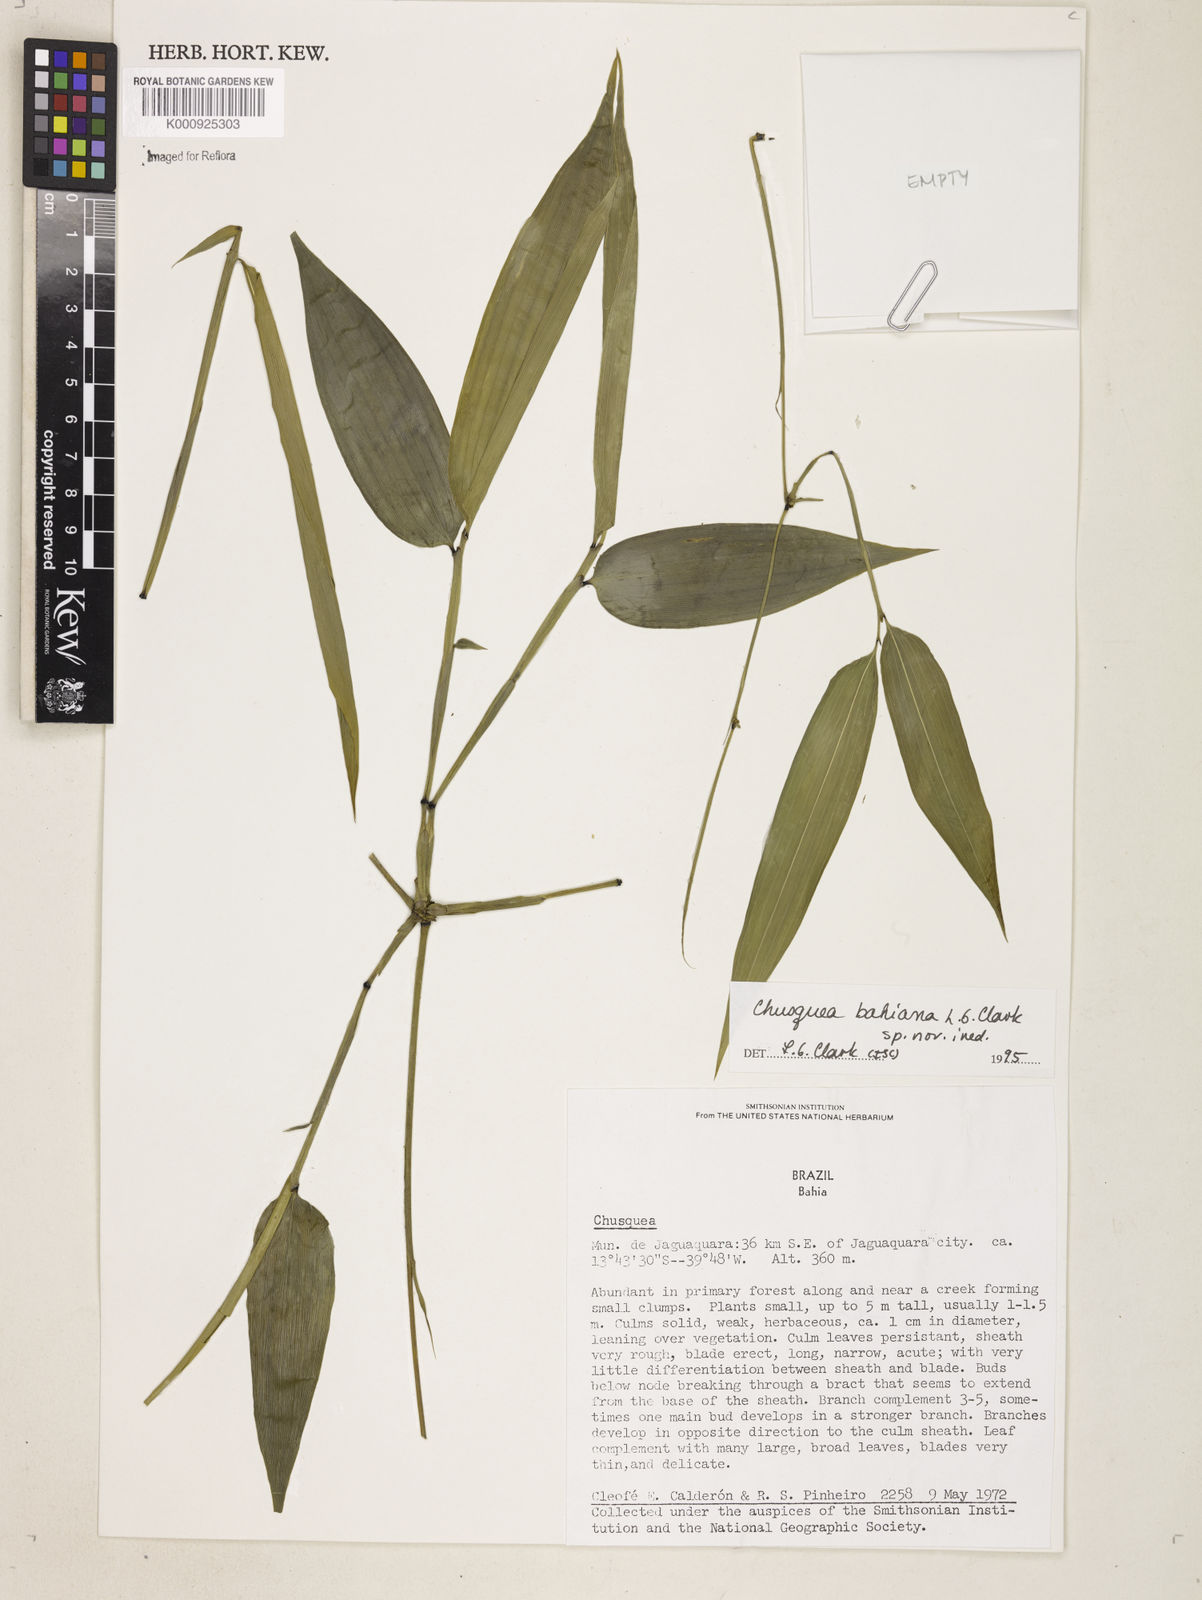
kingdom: Plantae
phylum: Tracheophyta
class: Liliopsida
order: Poales
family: Poaceae
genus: Chusquea
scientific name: Chusquea bahiana
